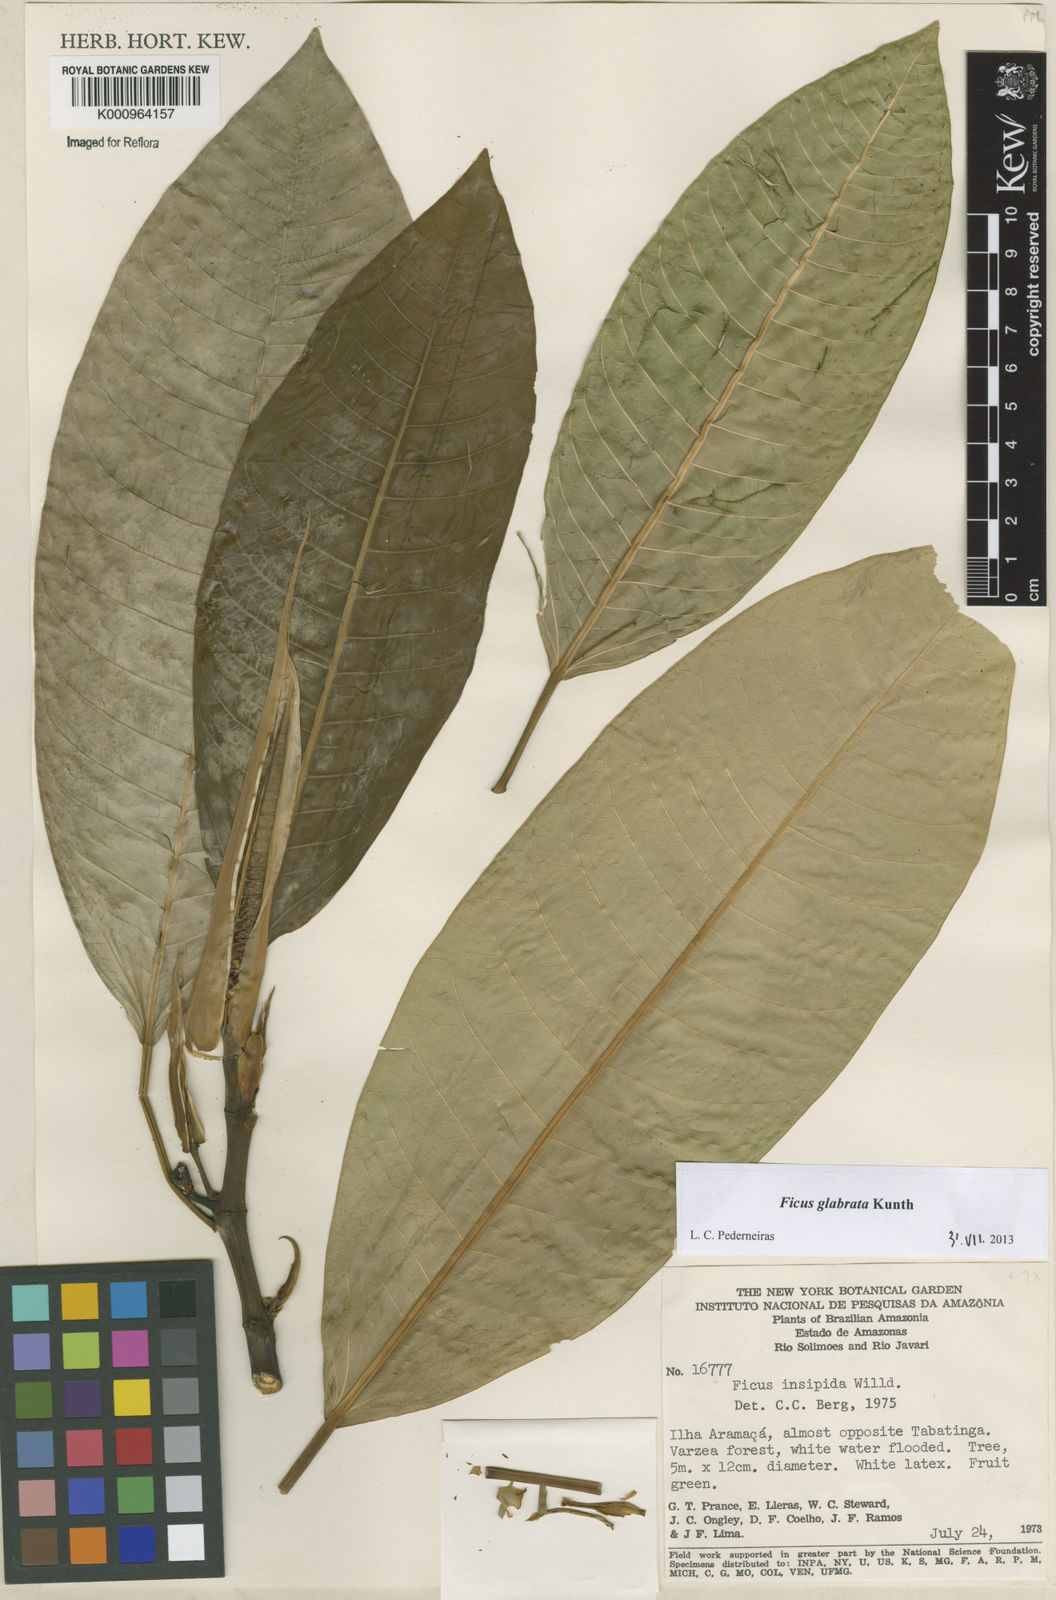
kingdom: Plantae
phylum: Tracheophyta
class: Magnoliopsida
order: Rosales
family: Moraceae
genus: Ficus
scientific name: Ficus insipida
